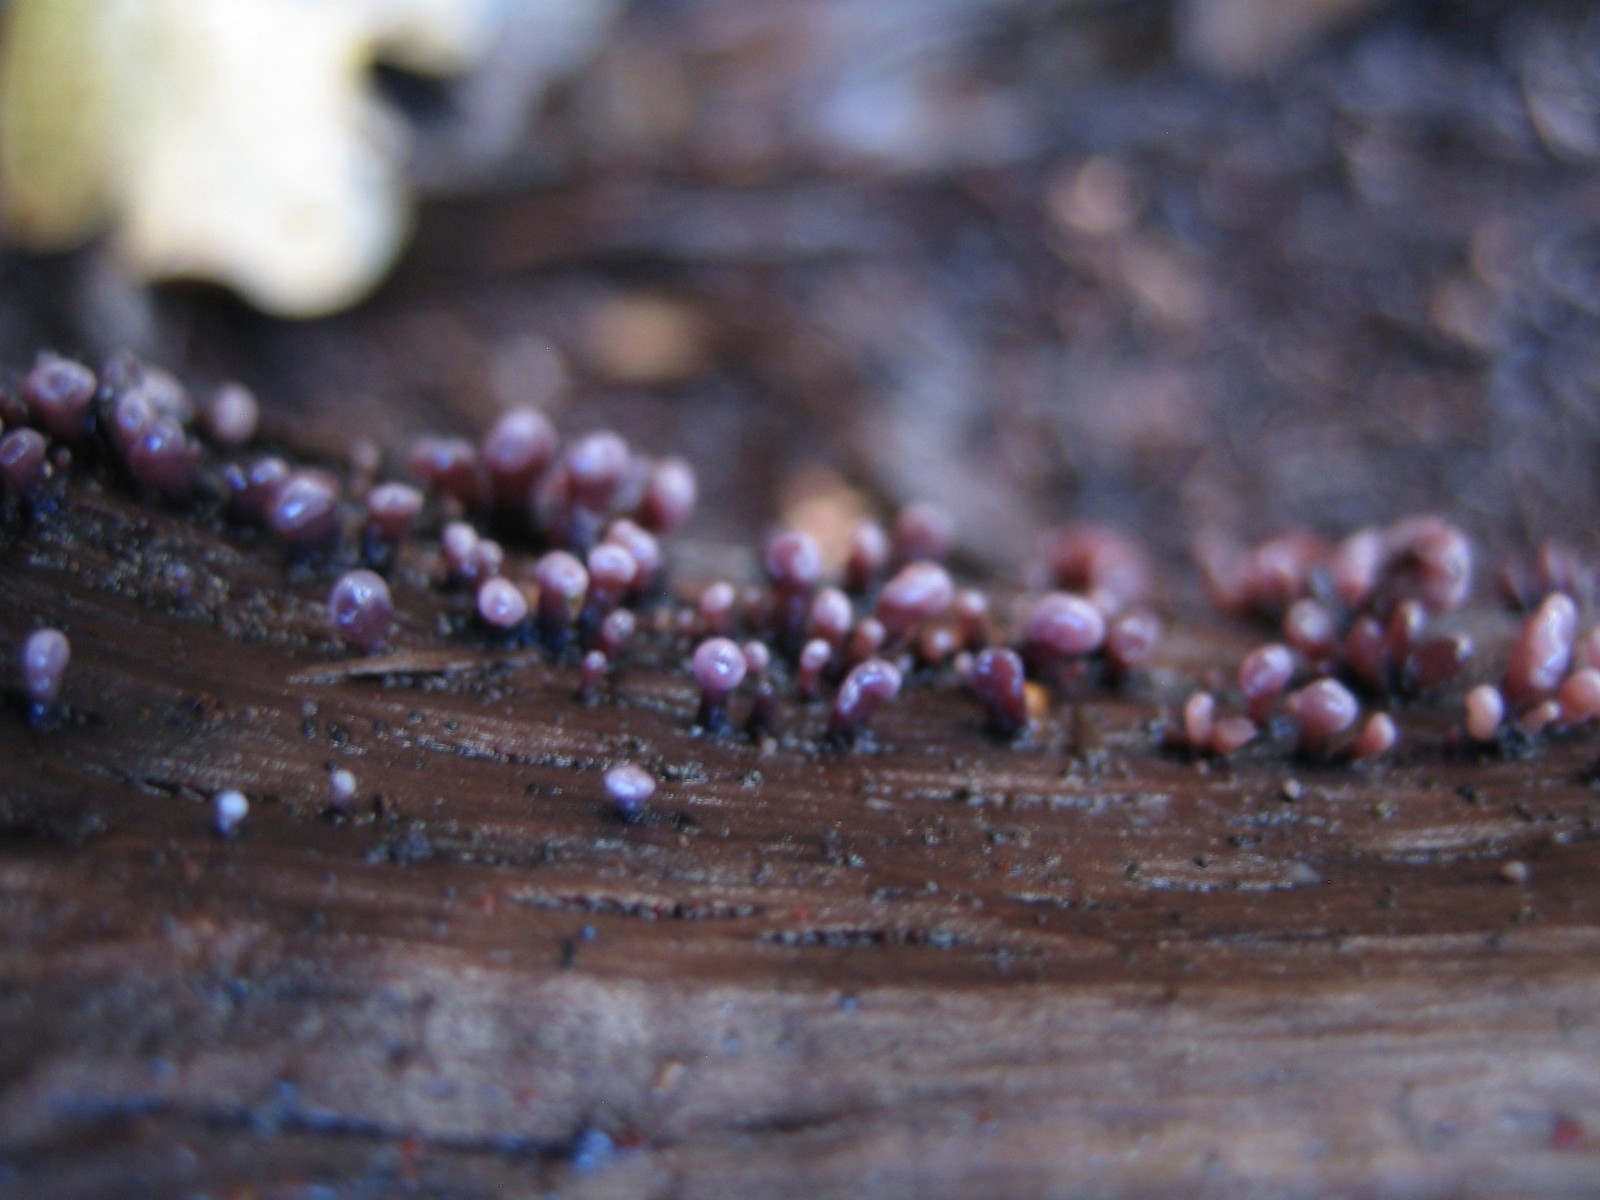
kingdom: Fungi
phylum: Ascomycota
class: Leotiomycetes
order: Helotiales
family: Gelatinodiscaceae
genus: Ascocoryne
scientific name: Ascocoryne sarcoides
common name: rødlilla sejskive
